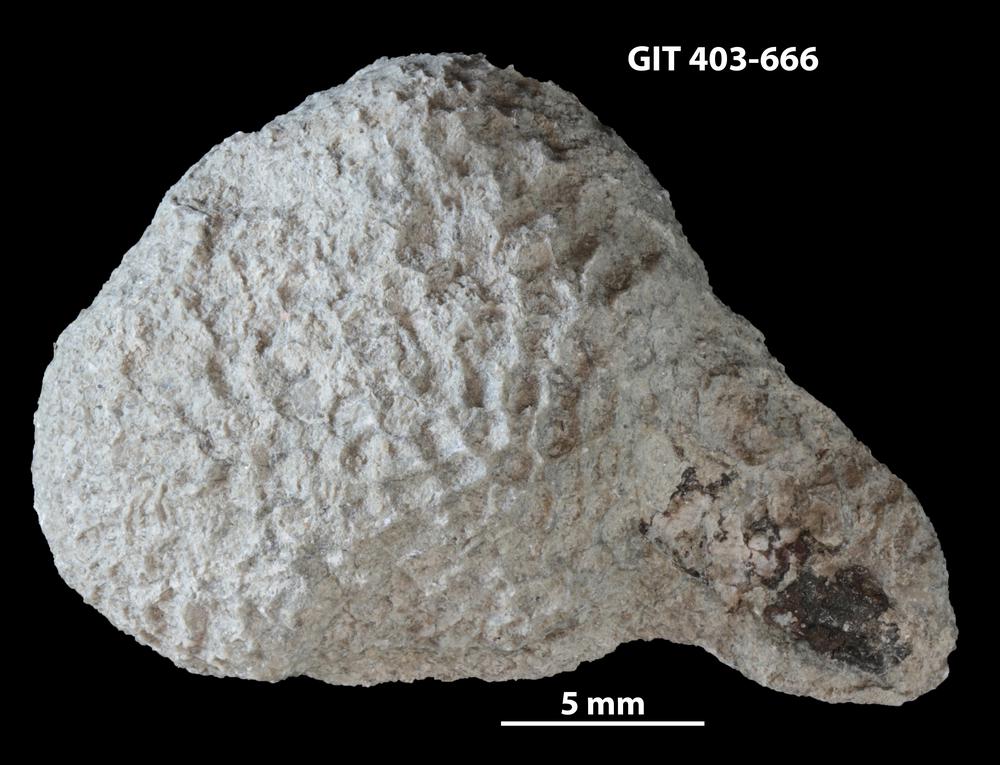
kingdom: Animalia
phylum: Cnidaria
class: Anthozoa
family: Favositidae
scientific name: Favositidae
